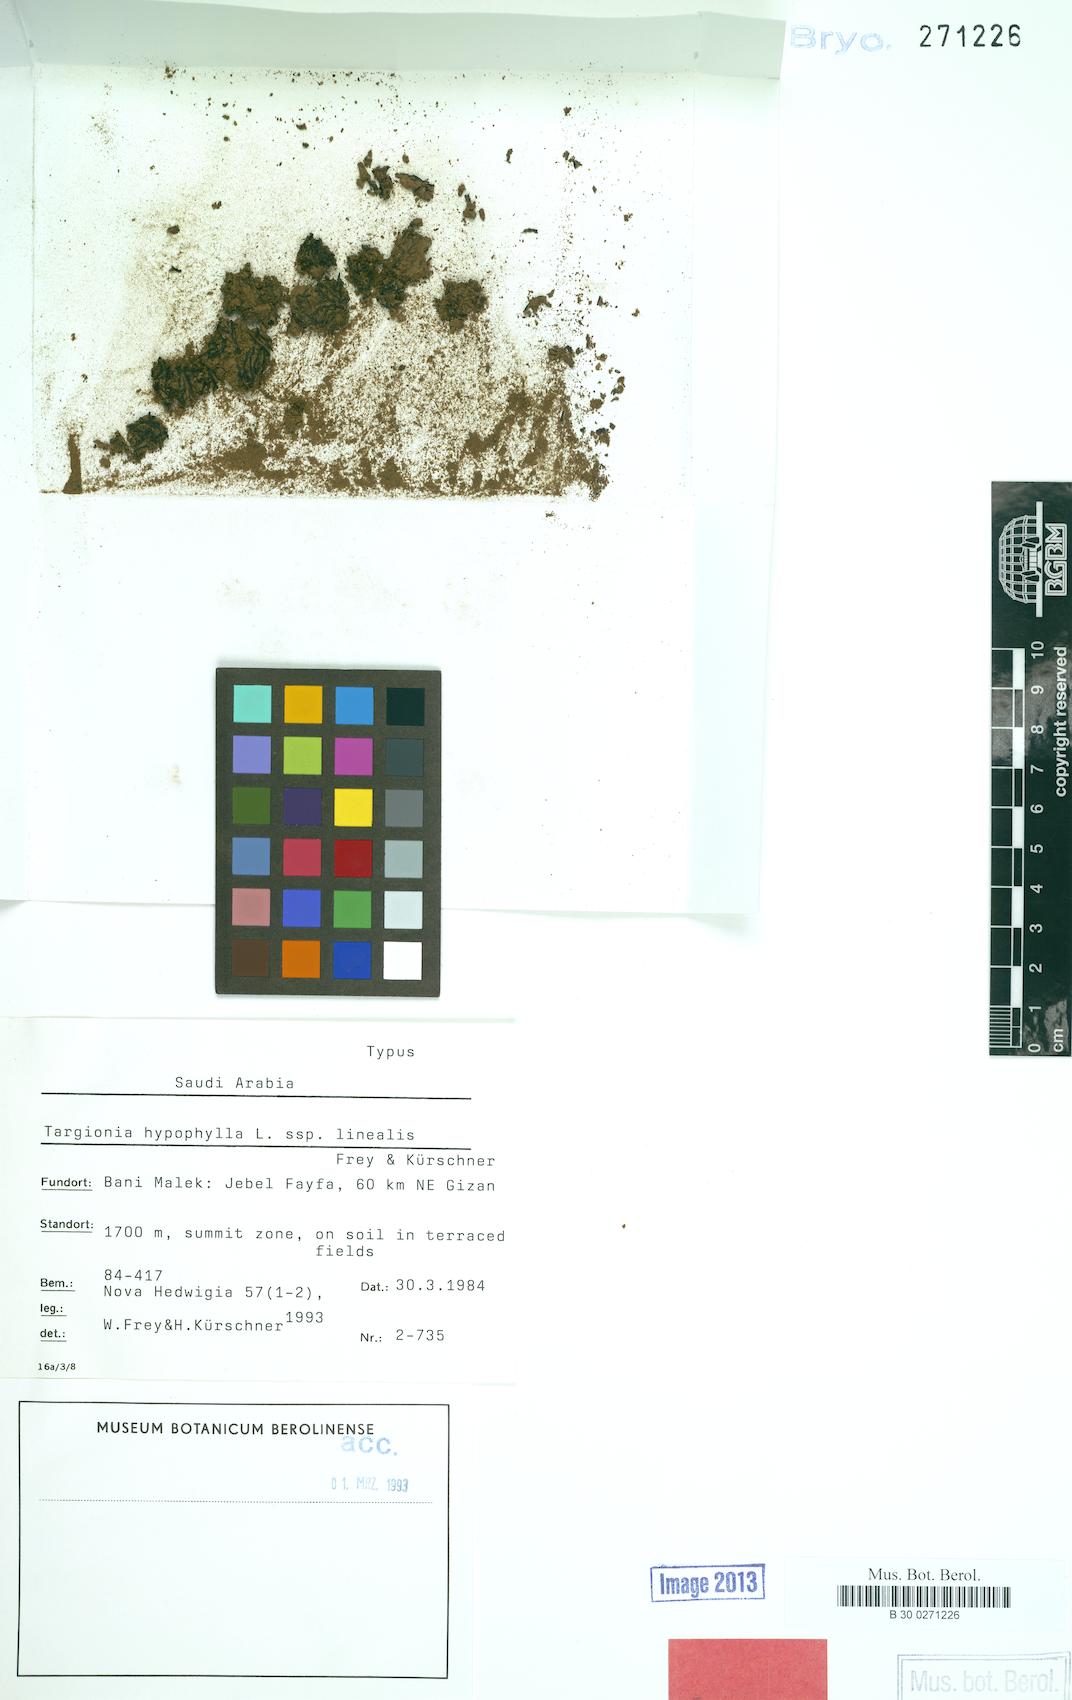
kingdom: Plantae
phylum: Marchantiophyta
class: Marchantiopsida
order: Marchantiales
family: Targioniaceae
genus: Targionia
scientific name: Targionia hypophylla
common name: Orobus-seed liverwort
